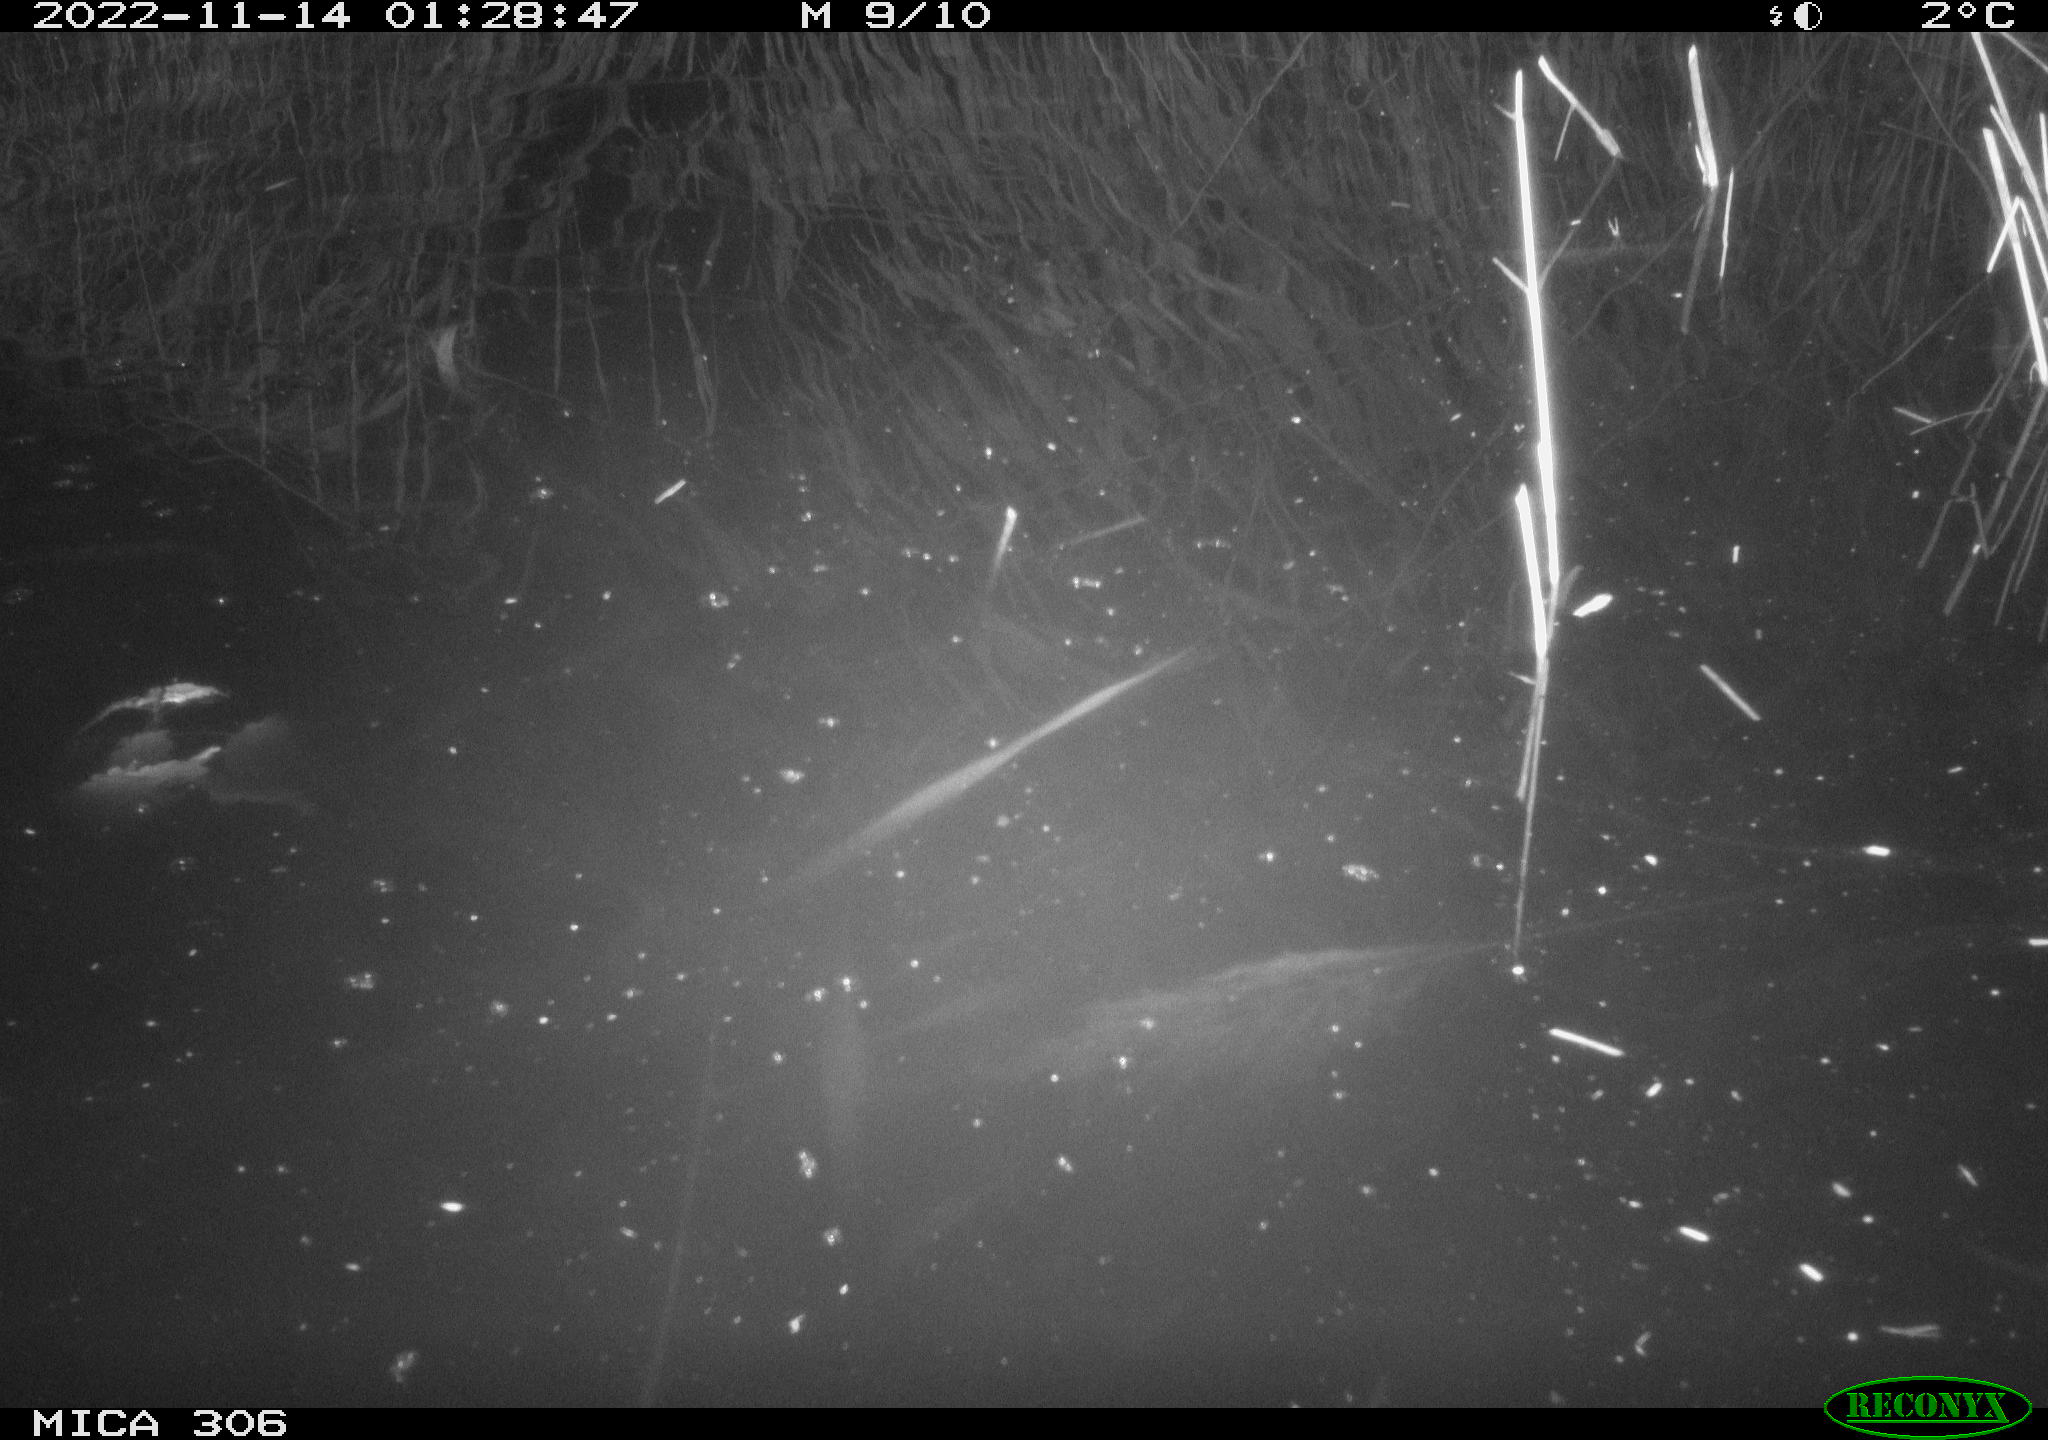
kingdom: Animalia
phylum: Chordata
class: Mammalia
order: Rodentia
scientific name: Rodentia
